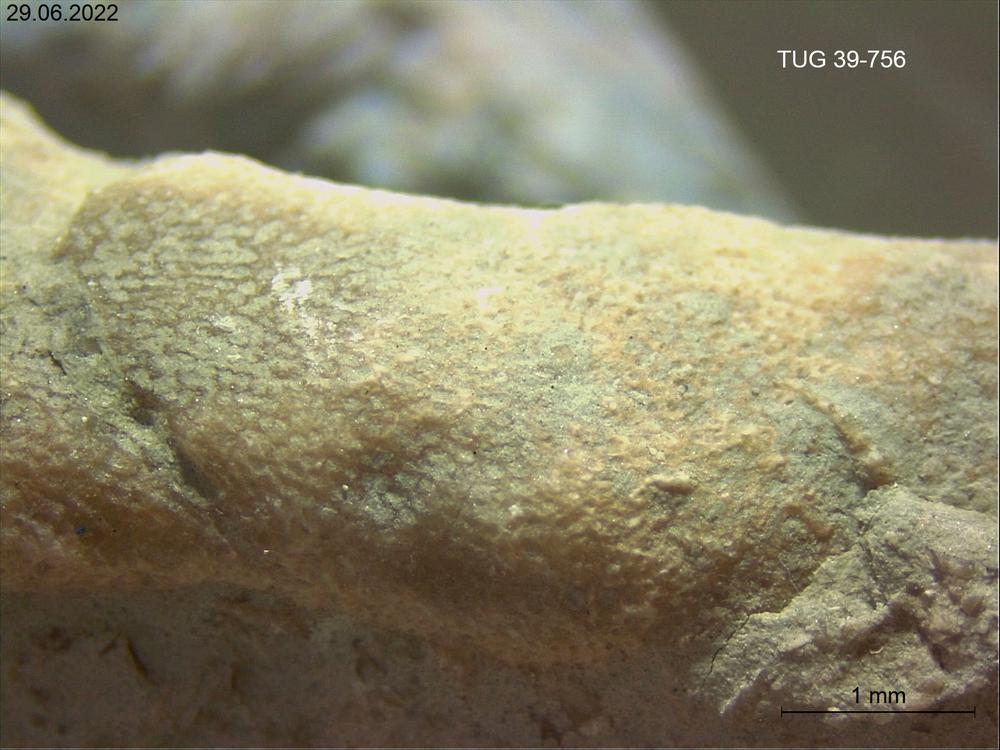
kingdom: Animalia
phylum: Bryozoa
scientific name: Bryozoa
